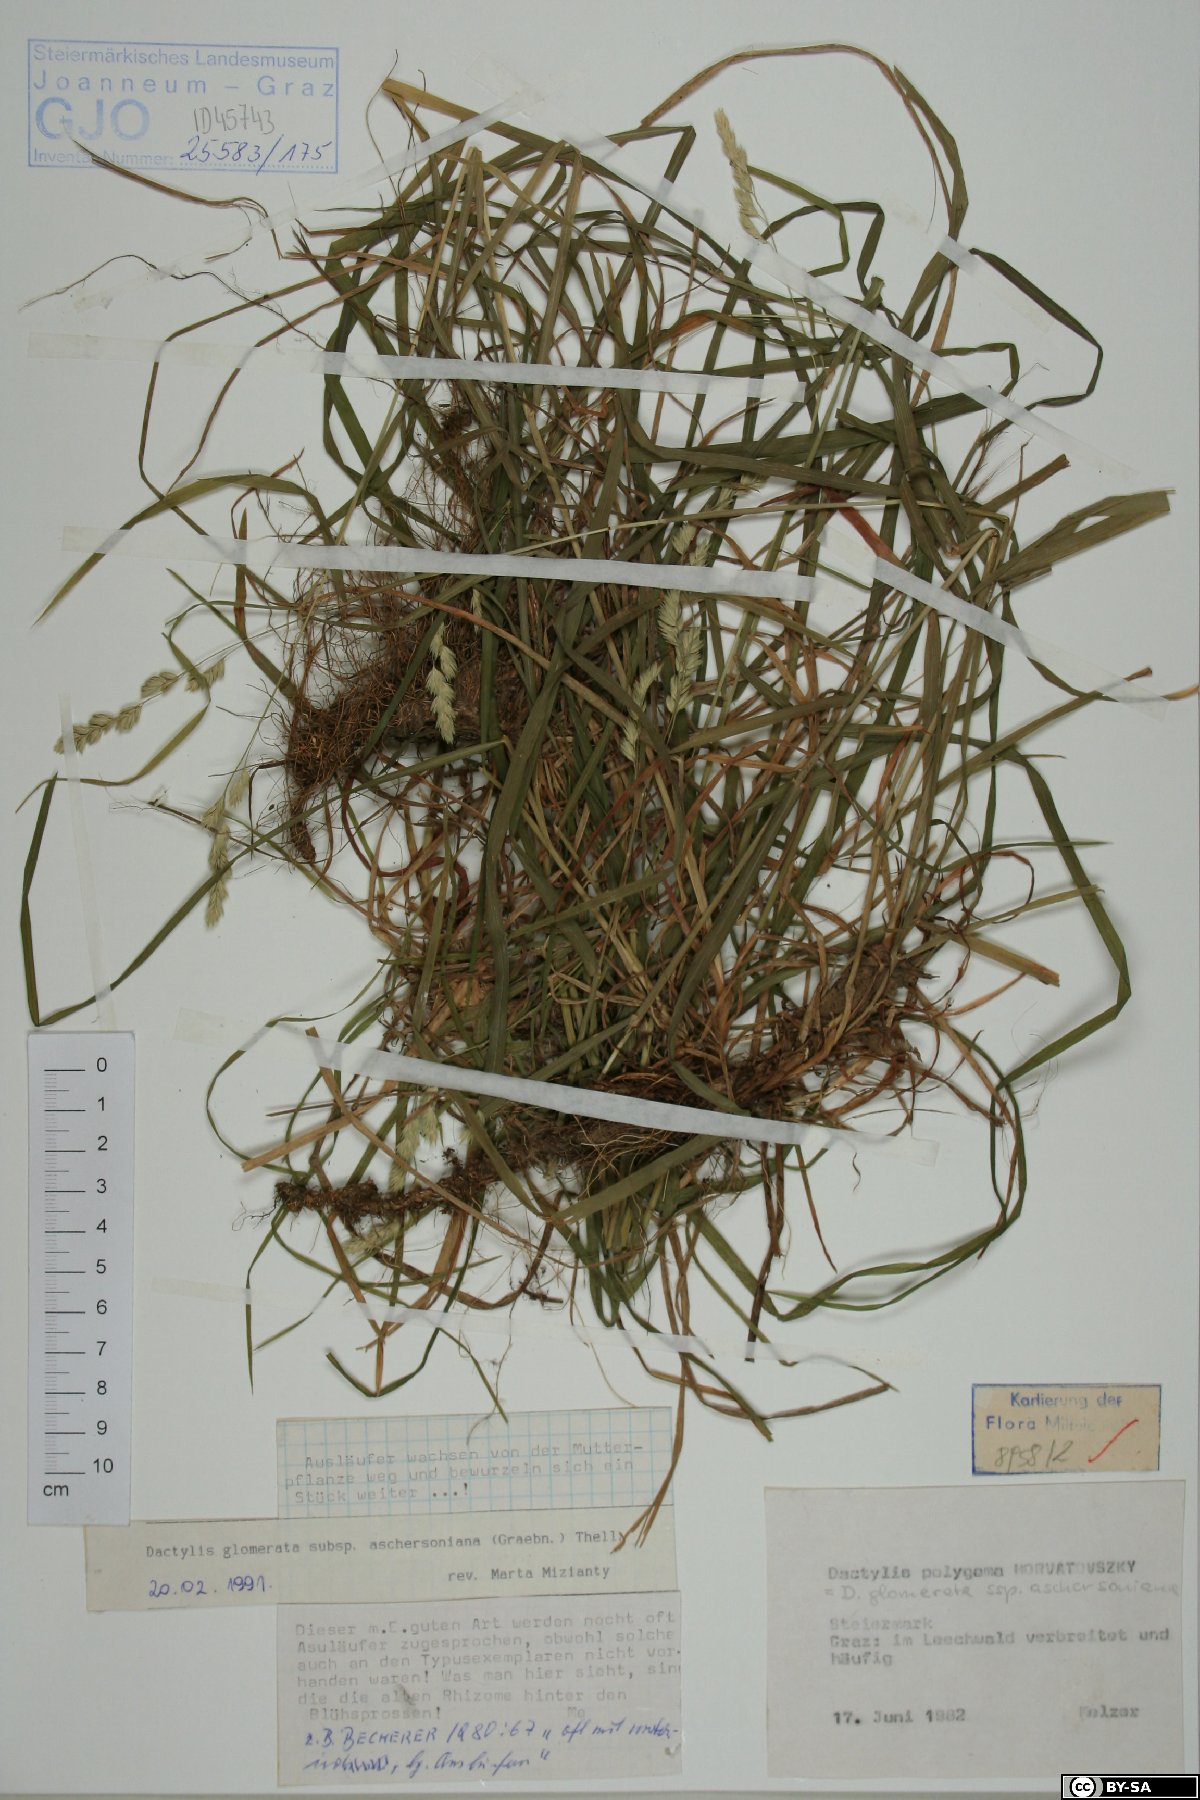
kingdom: Plantae
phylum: Tracheophyta
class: Liliopsida
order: Poales
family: Poaceae
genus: Dactylis
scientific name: Dactylis glomerata
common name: Orchardgrass
